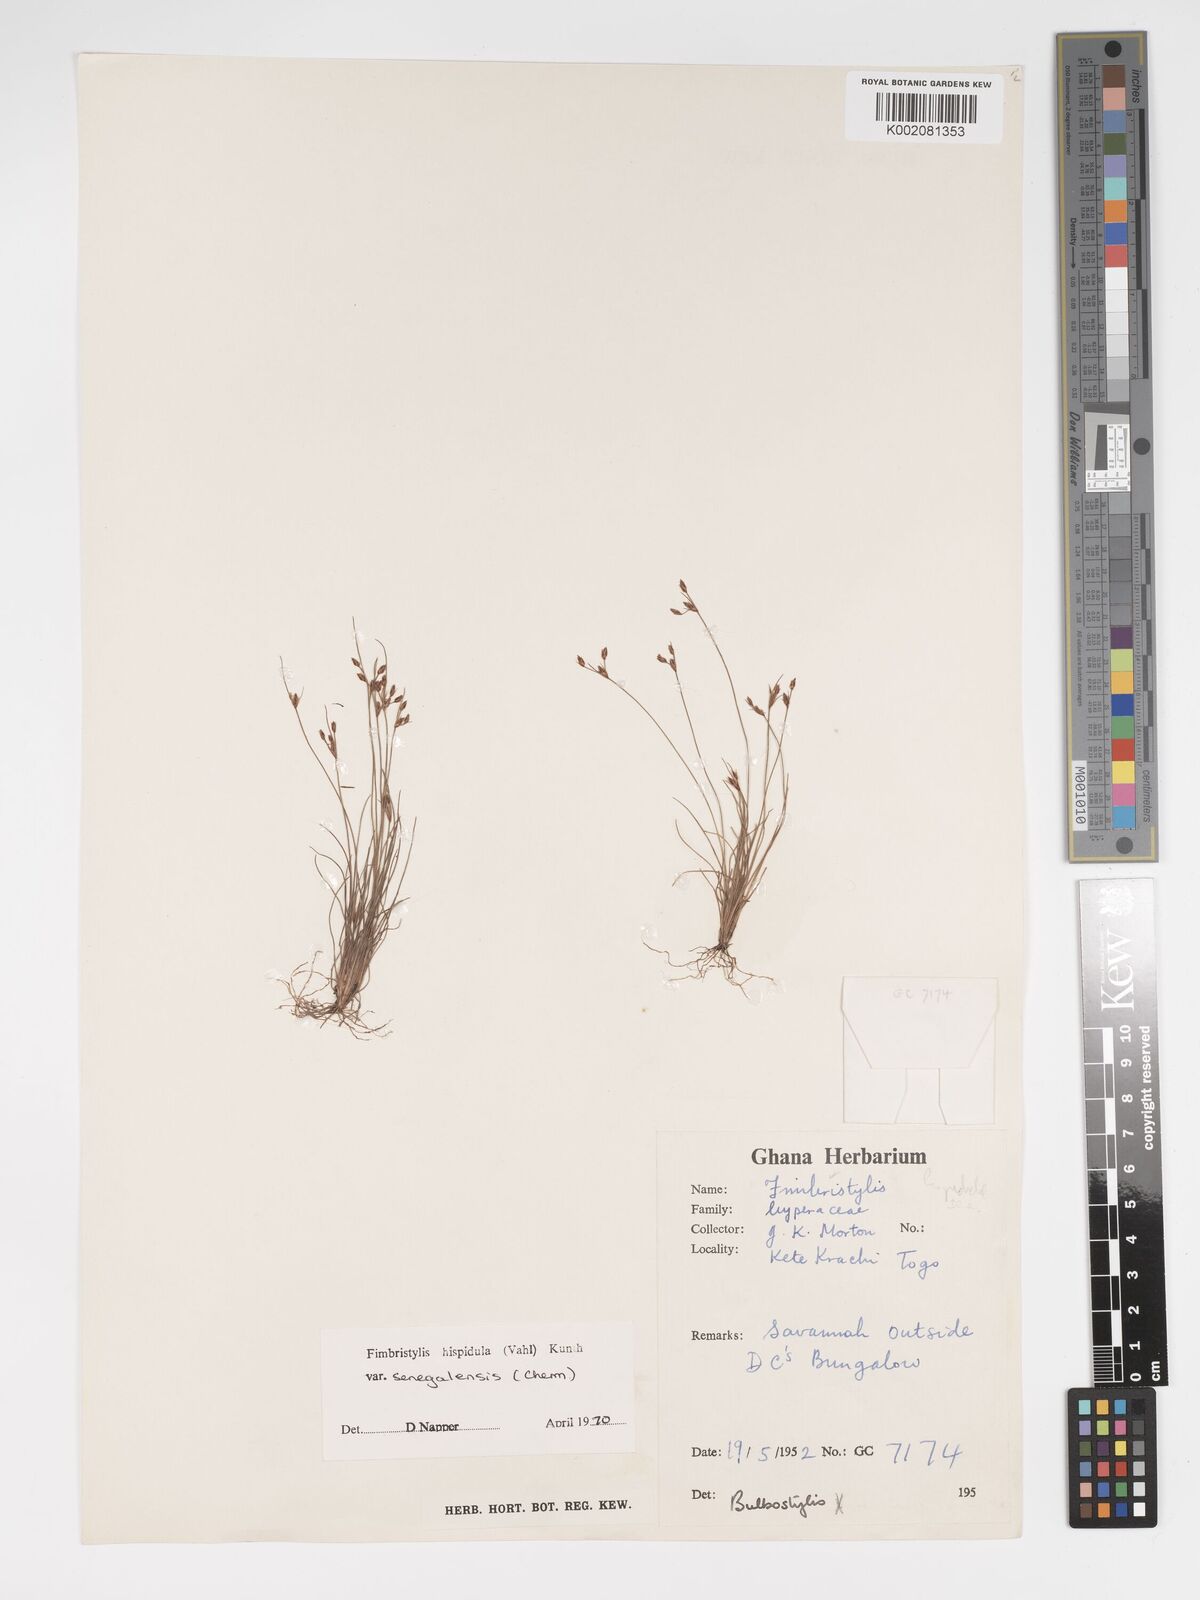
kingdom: Plantae
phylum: Tracheophyta
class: Liliopsida
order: Poales
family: Cyperaceae
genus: Bulbostylis
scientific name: Bulbostylis hispidula
